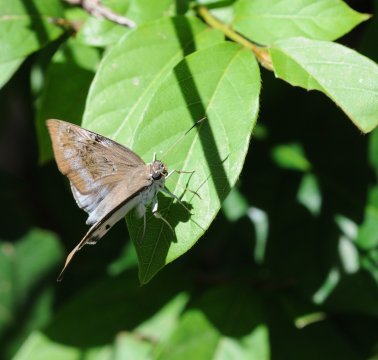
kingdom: Animalia
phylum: Arthropoda
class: Insecta
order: Lepidoptera
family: Hesperiidae
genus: Tagiades
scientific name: Tagiades flesus
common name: Clouded Flat
